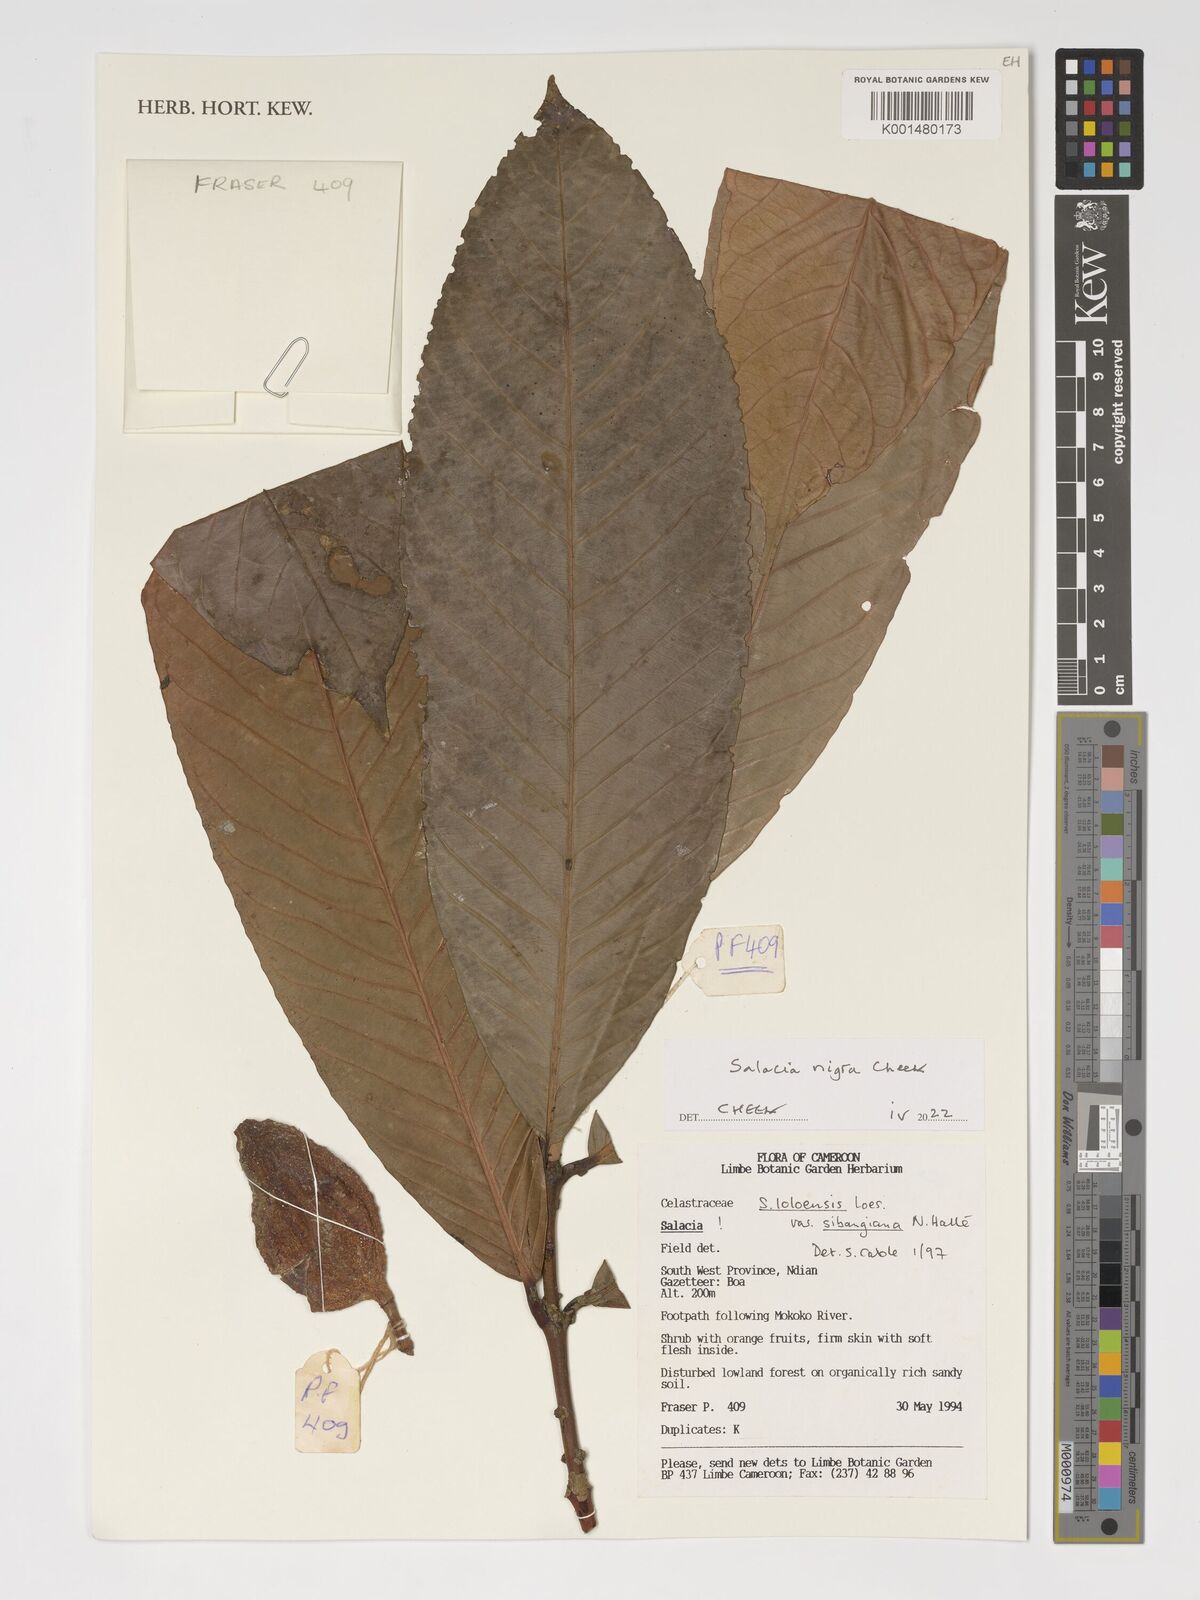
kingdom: Plantae
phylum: Tracheophyta
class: Magnoliopsida
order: Celastrales
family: Celastraceae
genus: Salacia
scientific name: Salacia nigra
